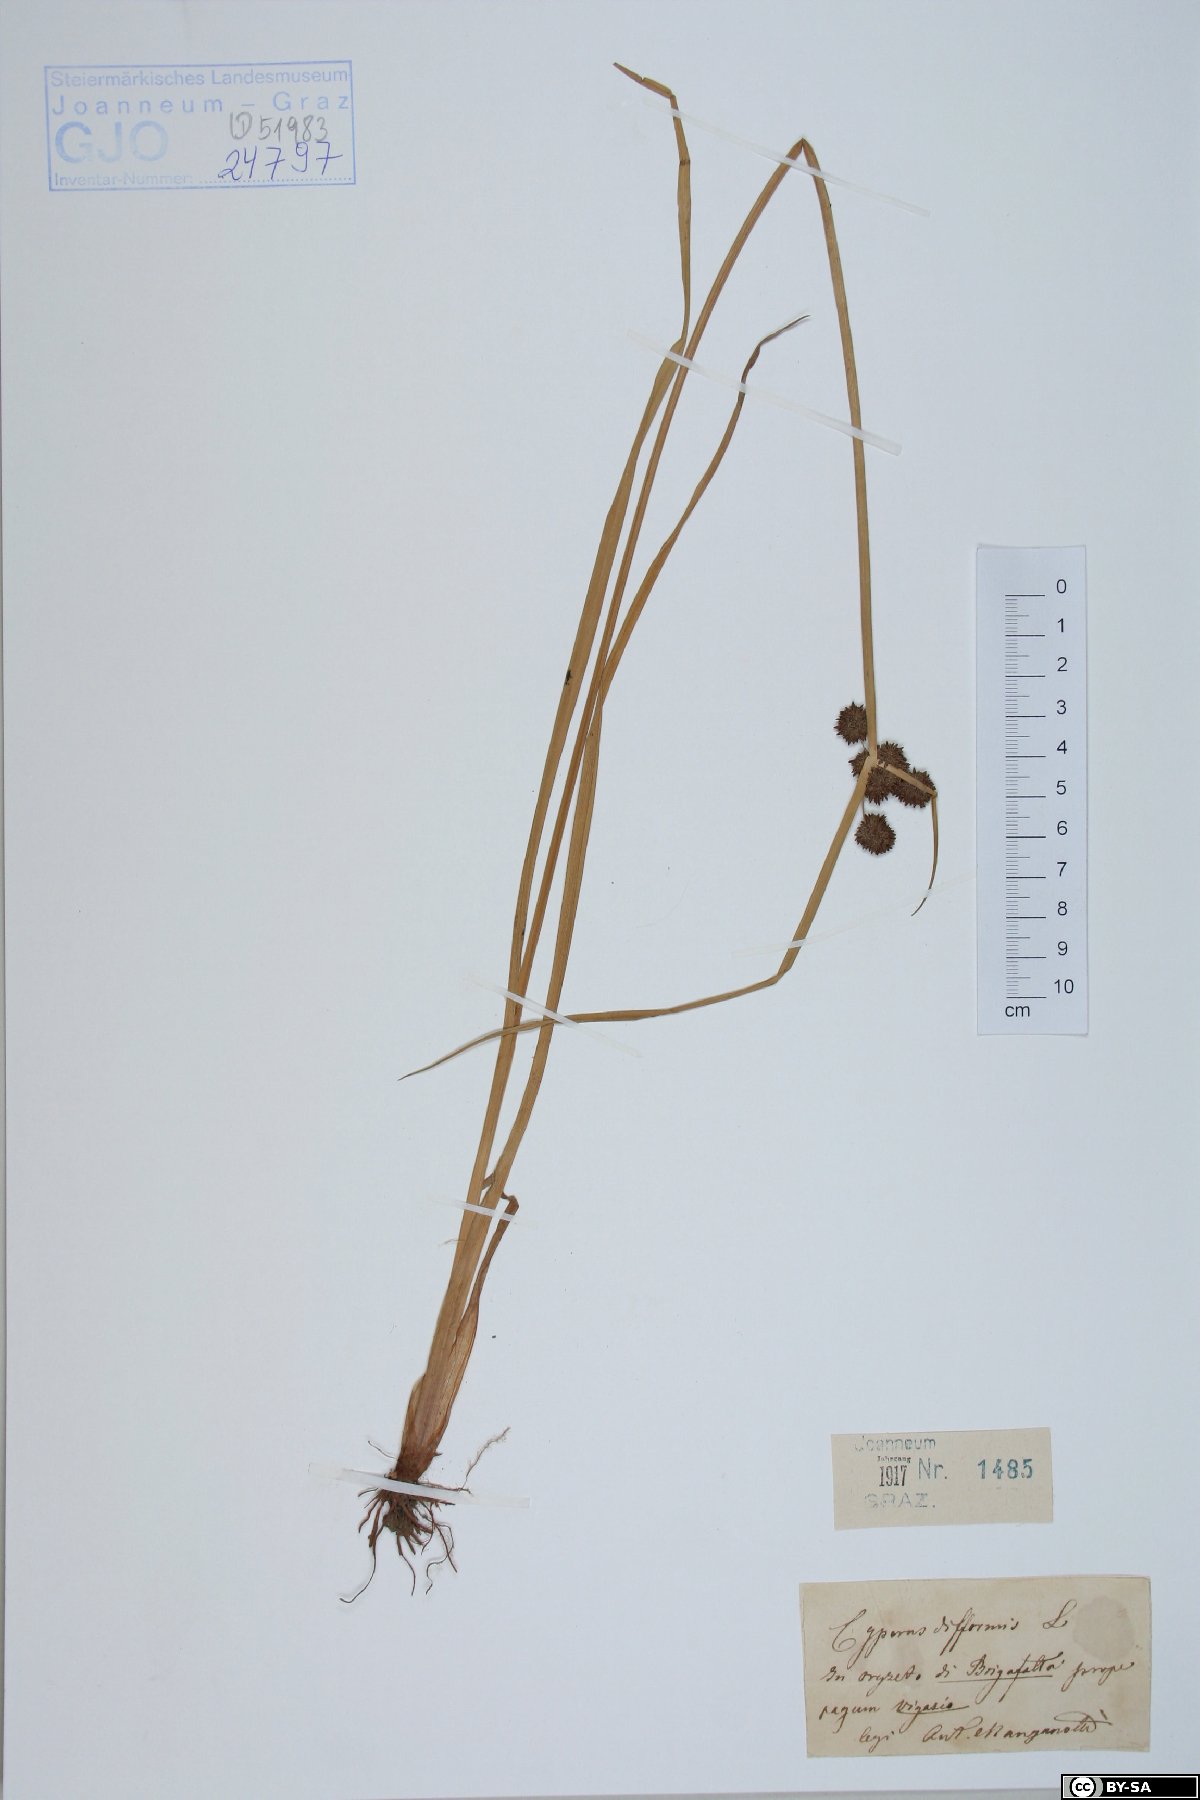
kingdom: Plantae
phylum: Tracheophyta
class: Liliopsida
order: Poales
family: Cyperaceae
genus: Cyperus
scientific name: Cyperus difformis
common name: Variable flatsedge
